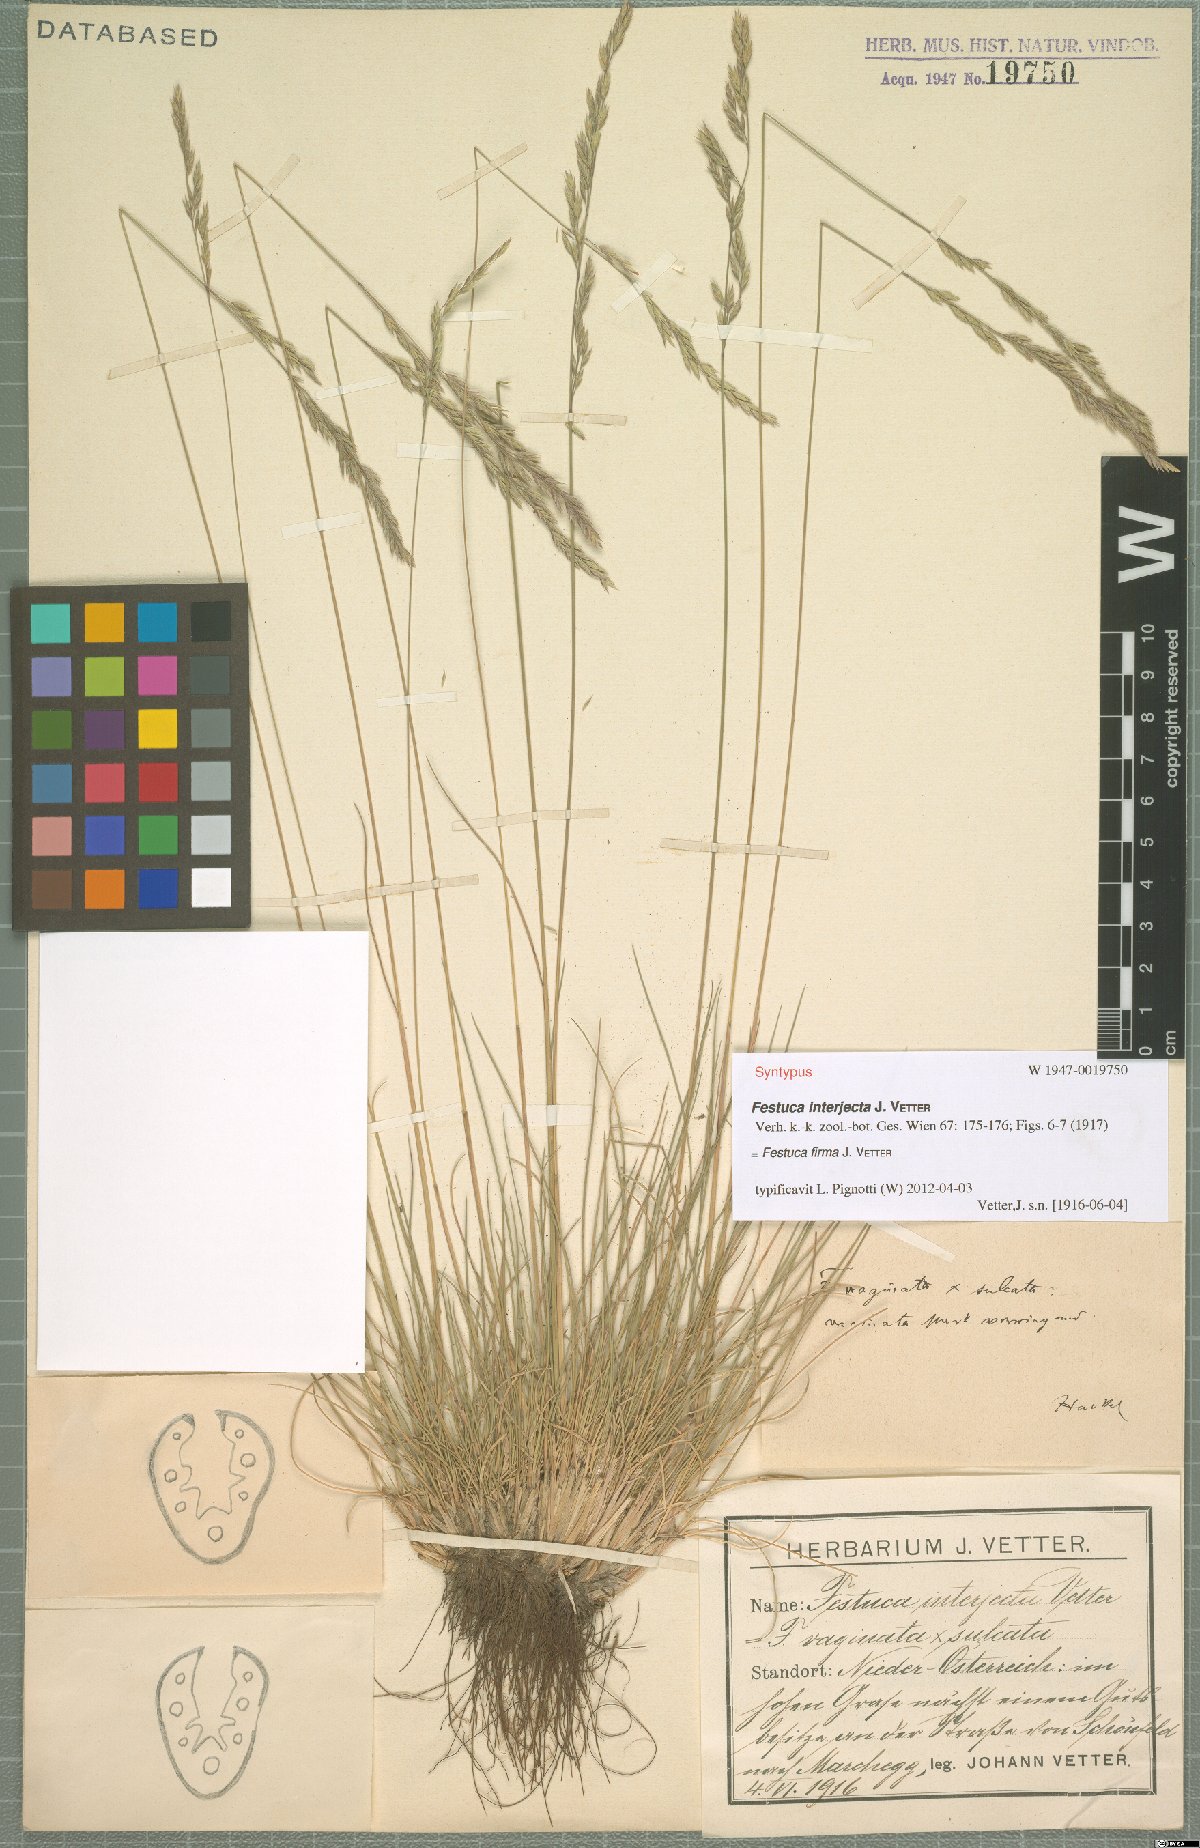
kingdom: Plantae
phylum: Tracheophyta
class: Liliopsida
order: Poales
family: Poaceae
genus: Festuca
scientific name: Festuca pulchra
